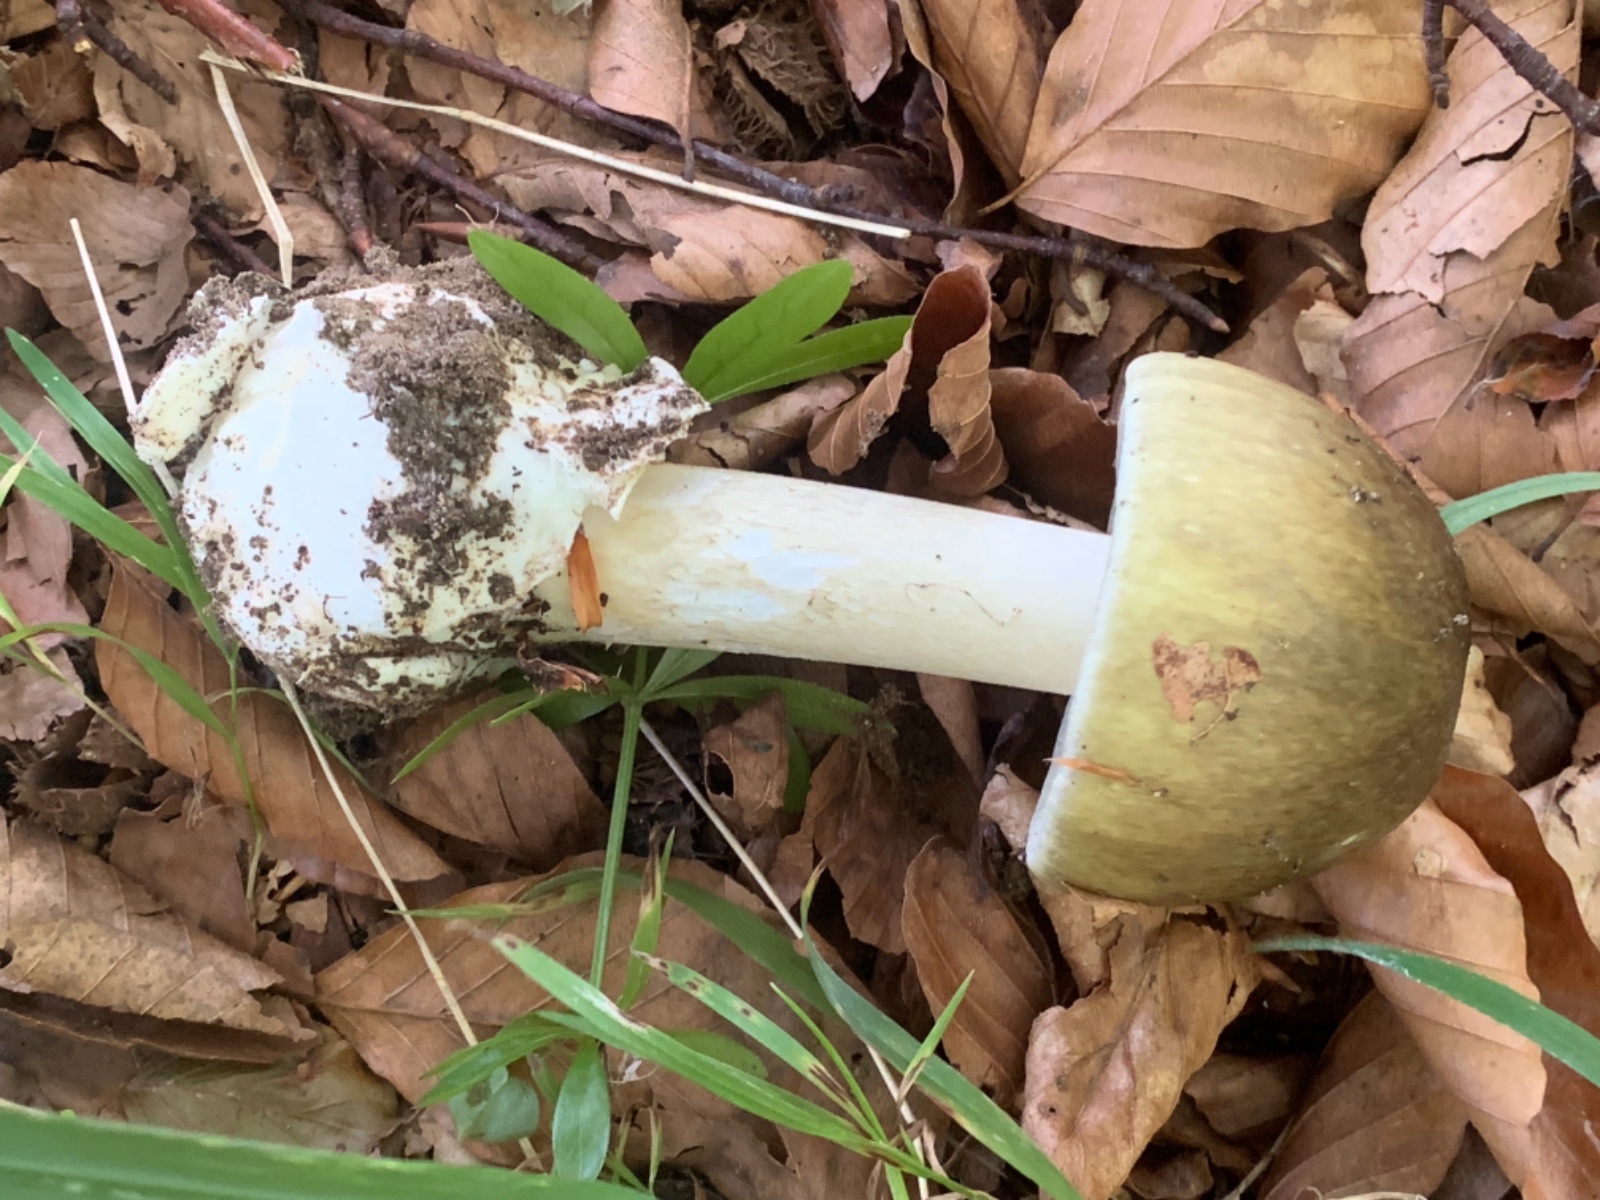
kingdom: Fungi
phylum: Basidiomycota
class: Agaricomycetes
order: Agaricales
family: Amanitaceae
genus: Amanita
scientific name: Amanita phalloides
